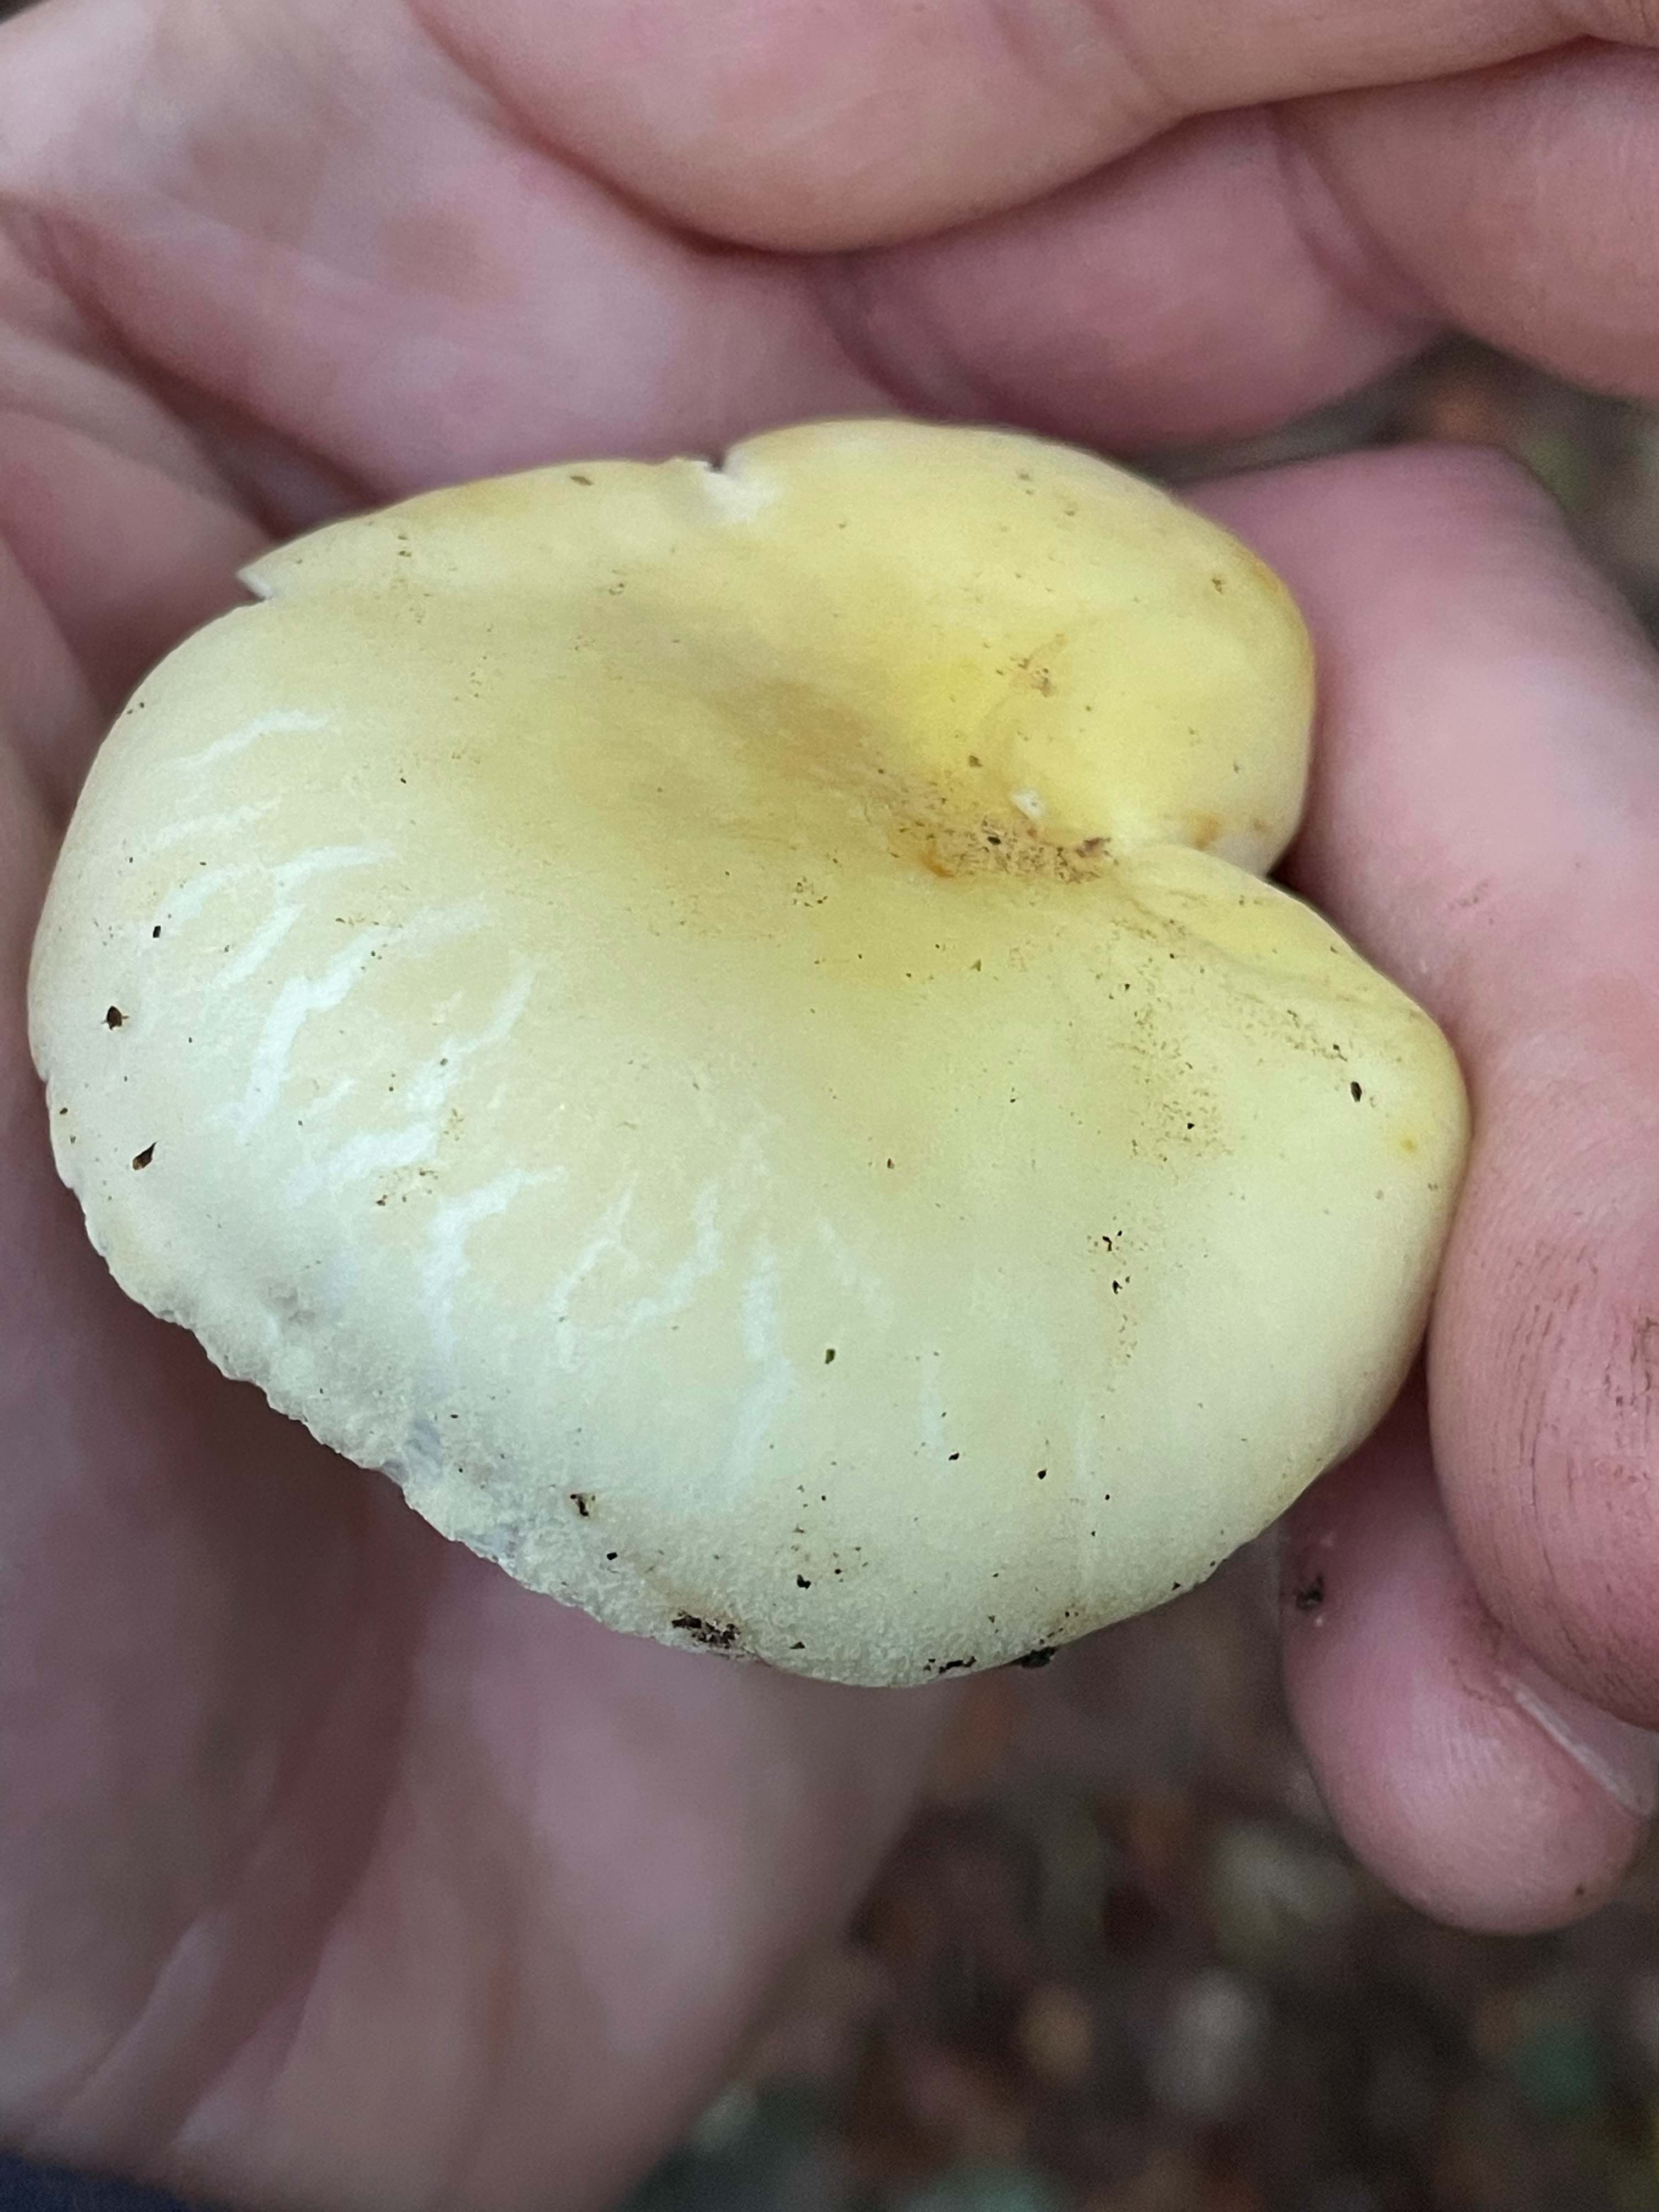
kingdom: Fungi
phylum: Basidiomycota
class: Agaricomycetes
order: Russulales
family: Russulaceae
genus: Russula
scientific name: Russula violeipes
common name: ferskengul skørhat
